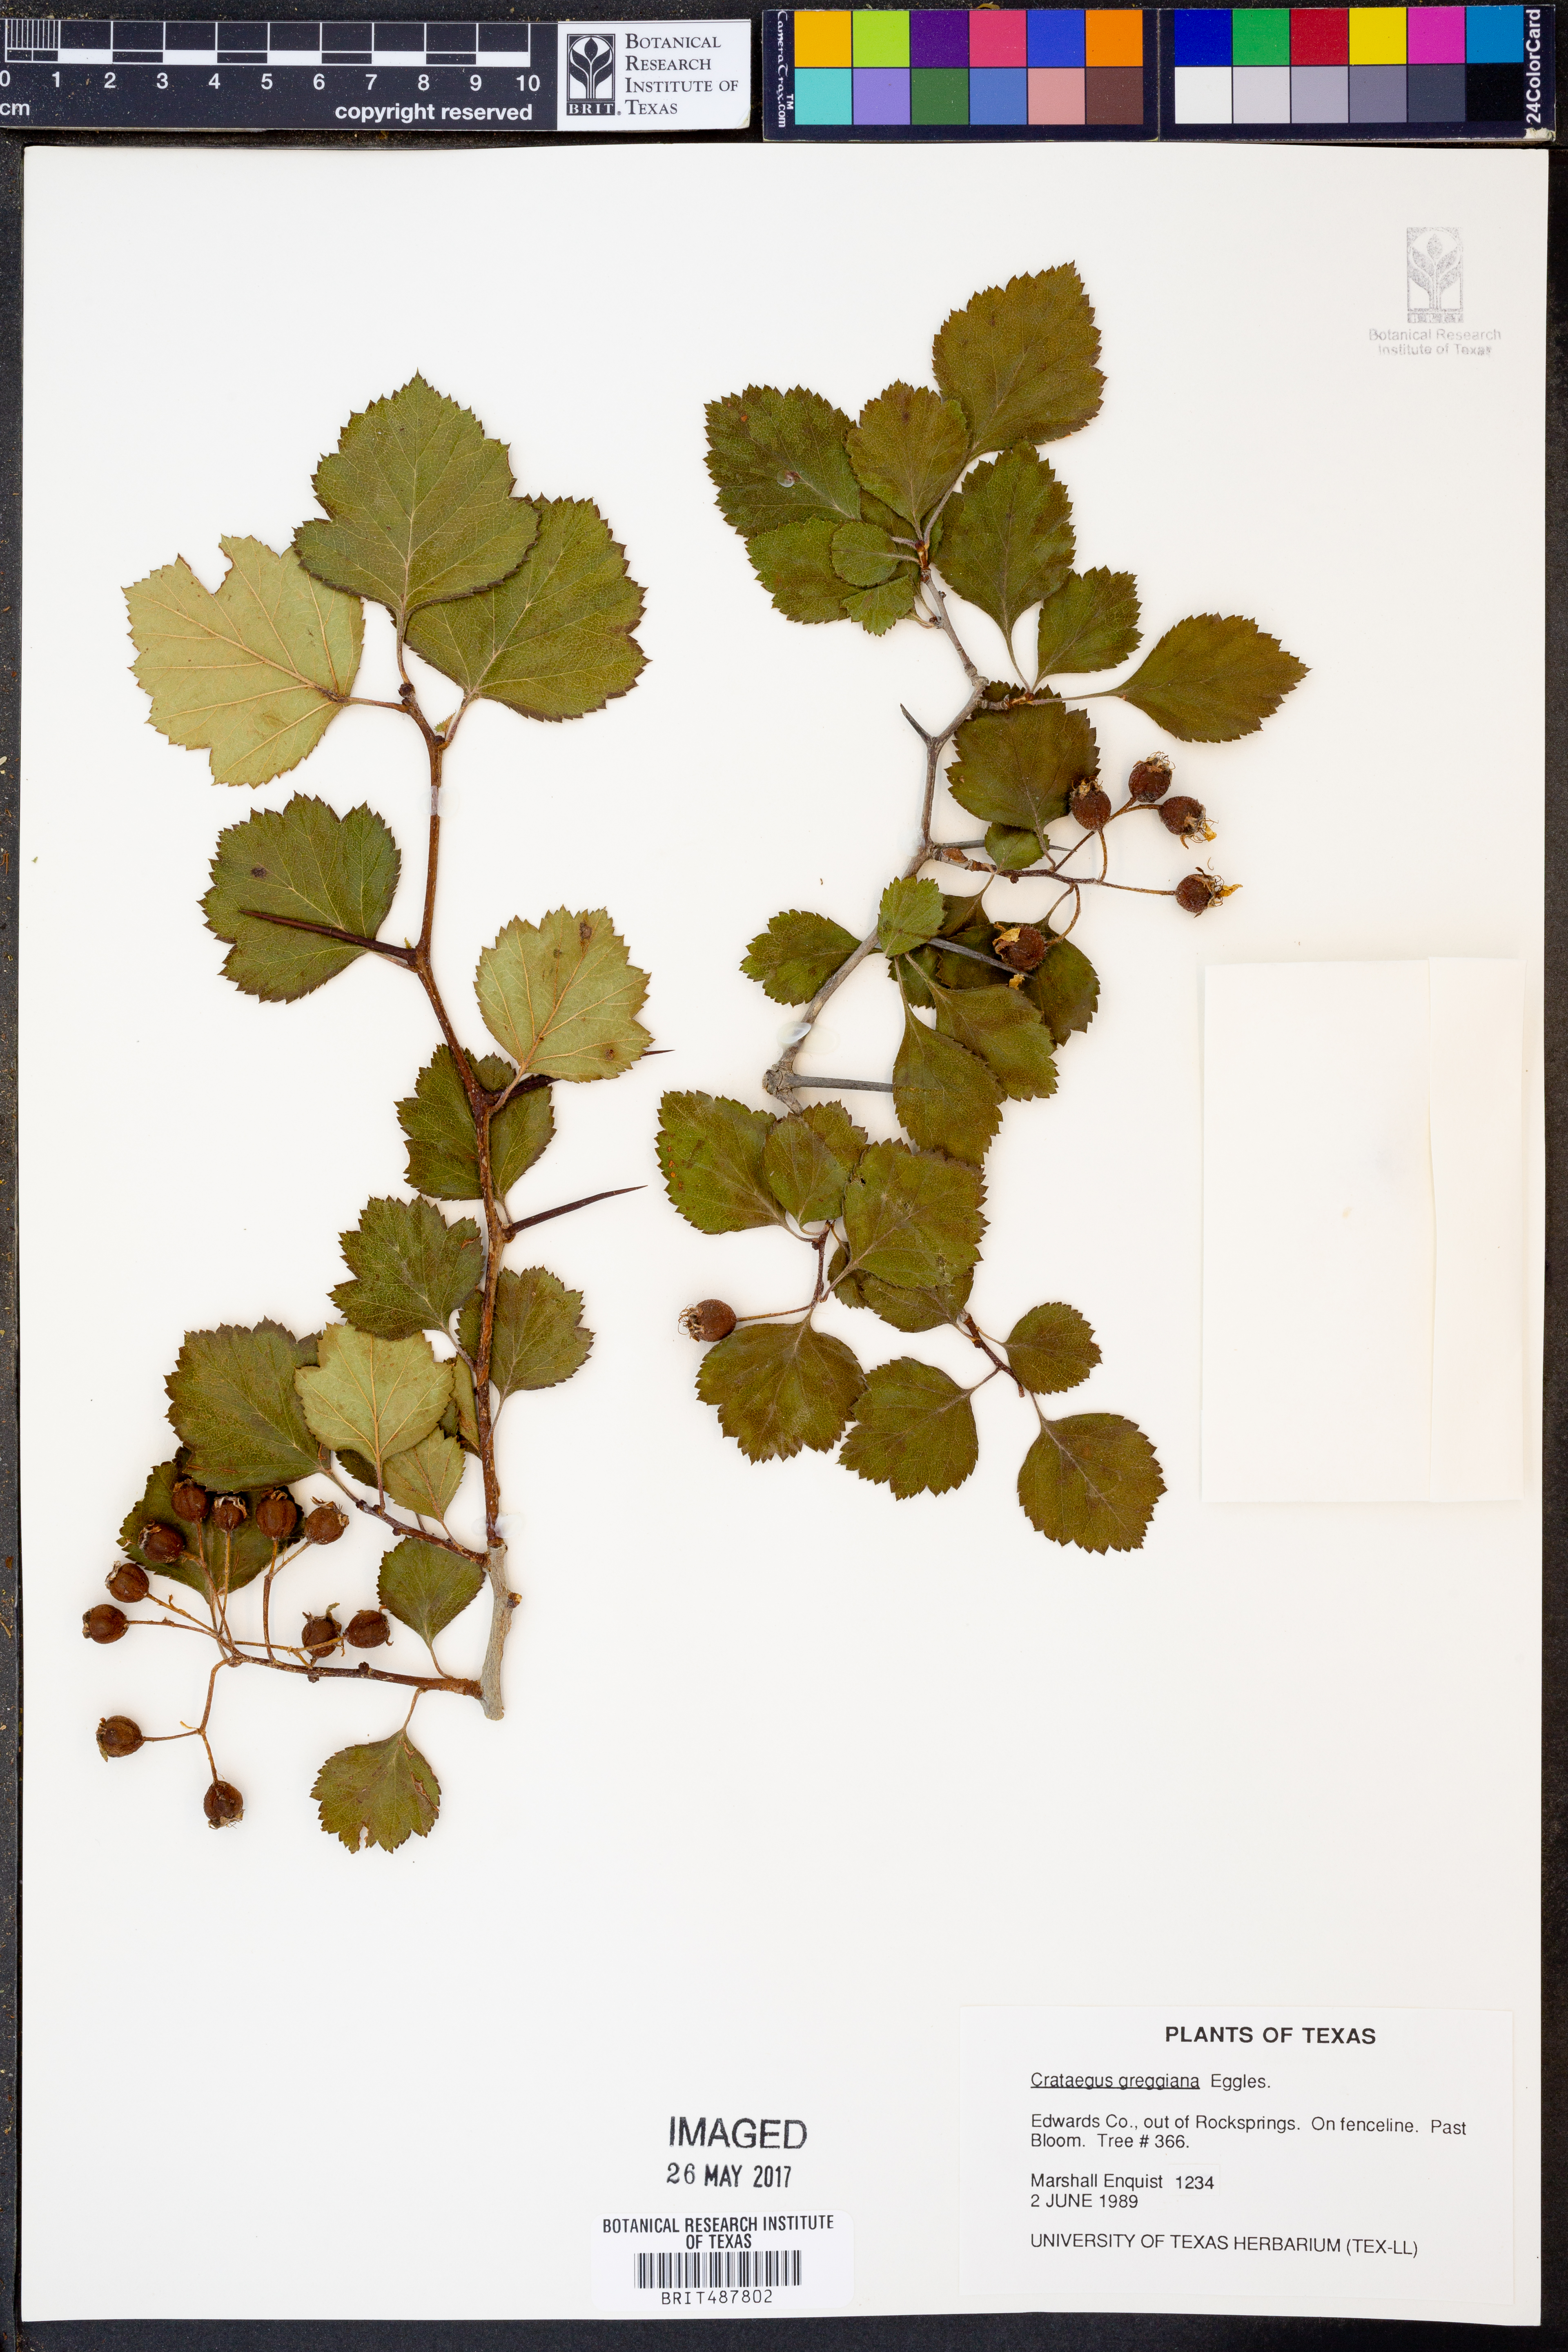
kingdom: Plantae
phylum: Tracheophyta
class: Magnoliopsida
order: Rosales
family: Rosaceae
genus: Crataegus
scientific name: Crataegus greggiana
